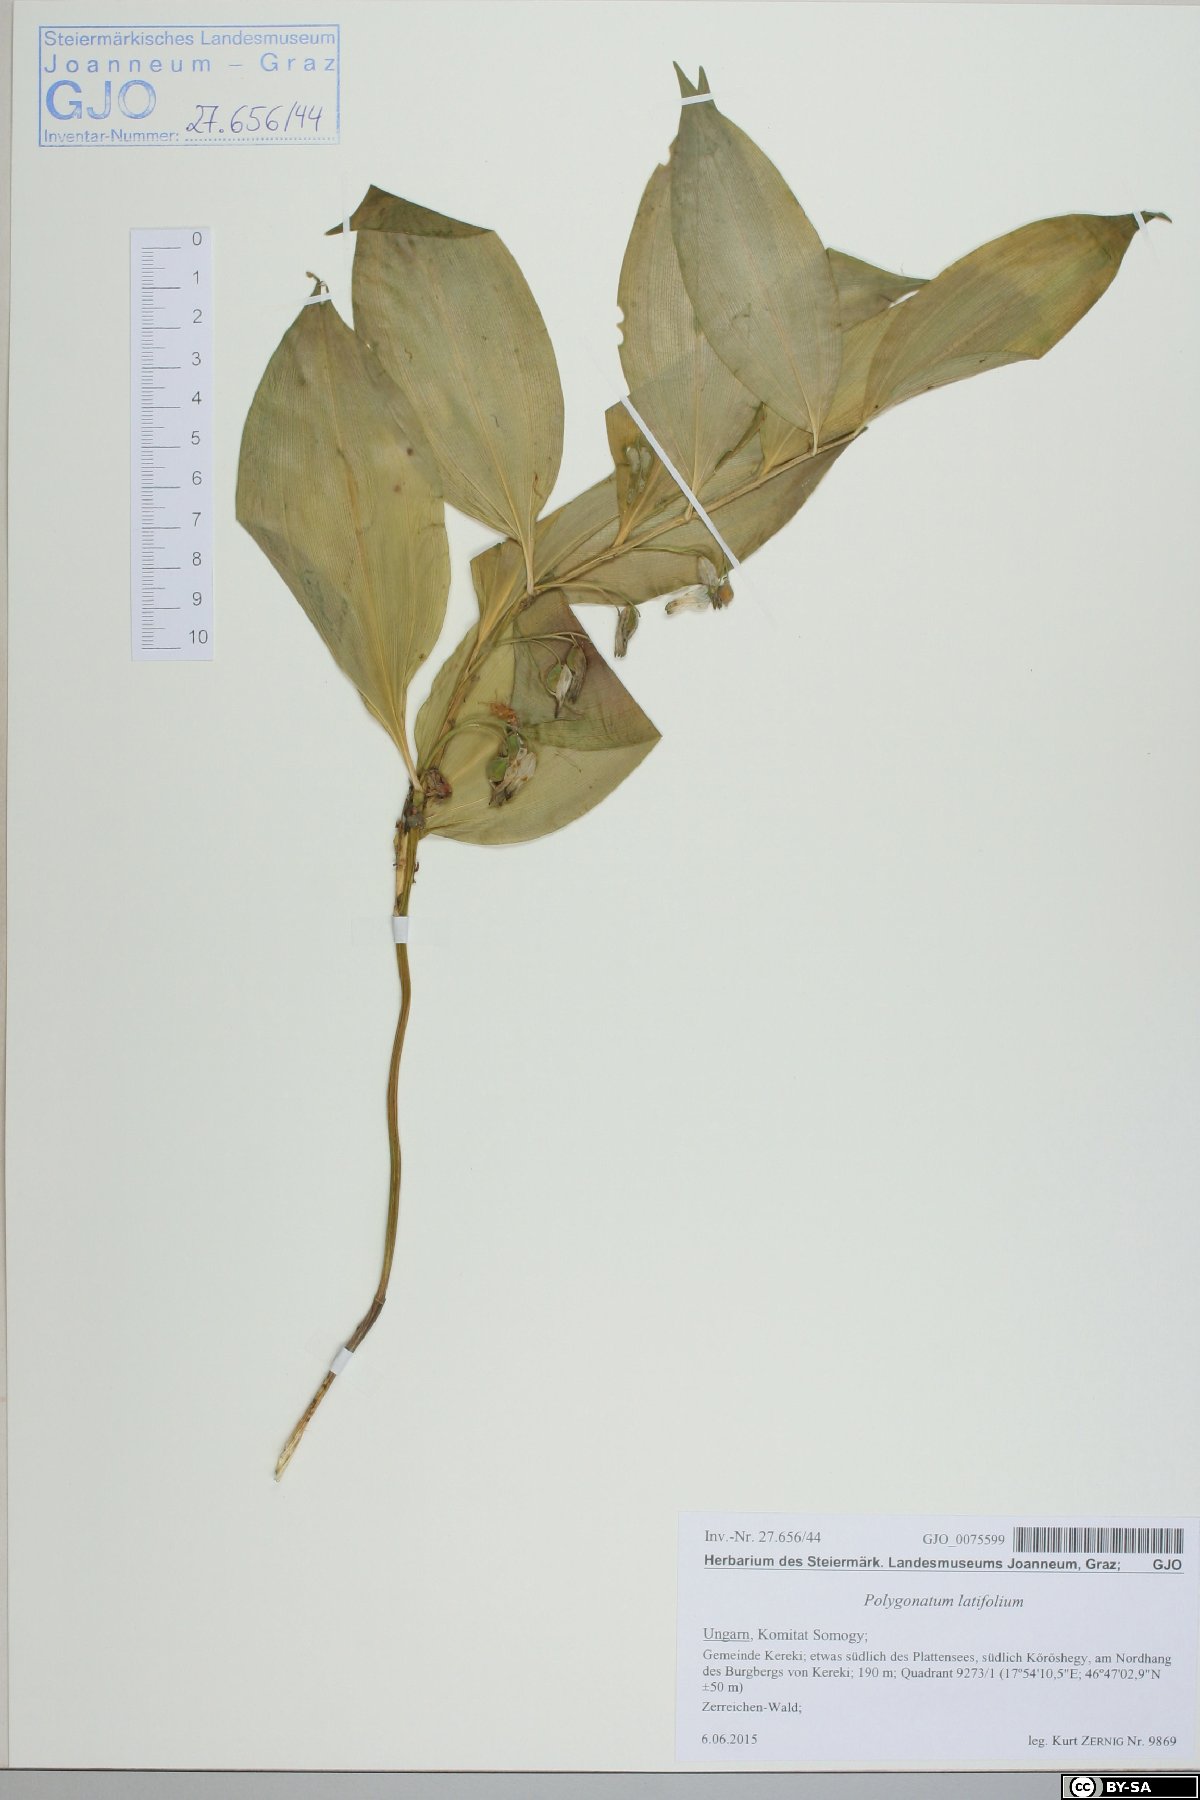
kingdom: Plantae
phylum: Tracheophyta
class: Liliopsida
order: Asparagales
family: Asparagaceae
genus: Polygonatum
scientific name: Polygonatum latifolium
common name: Broadleaf solomon's seal
